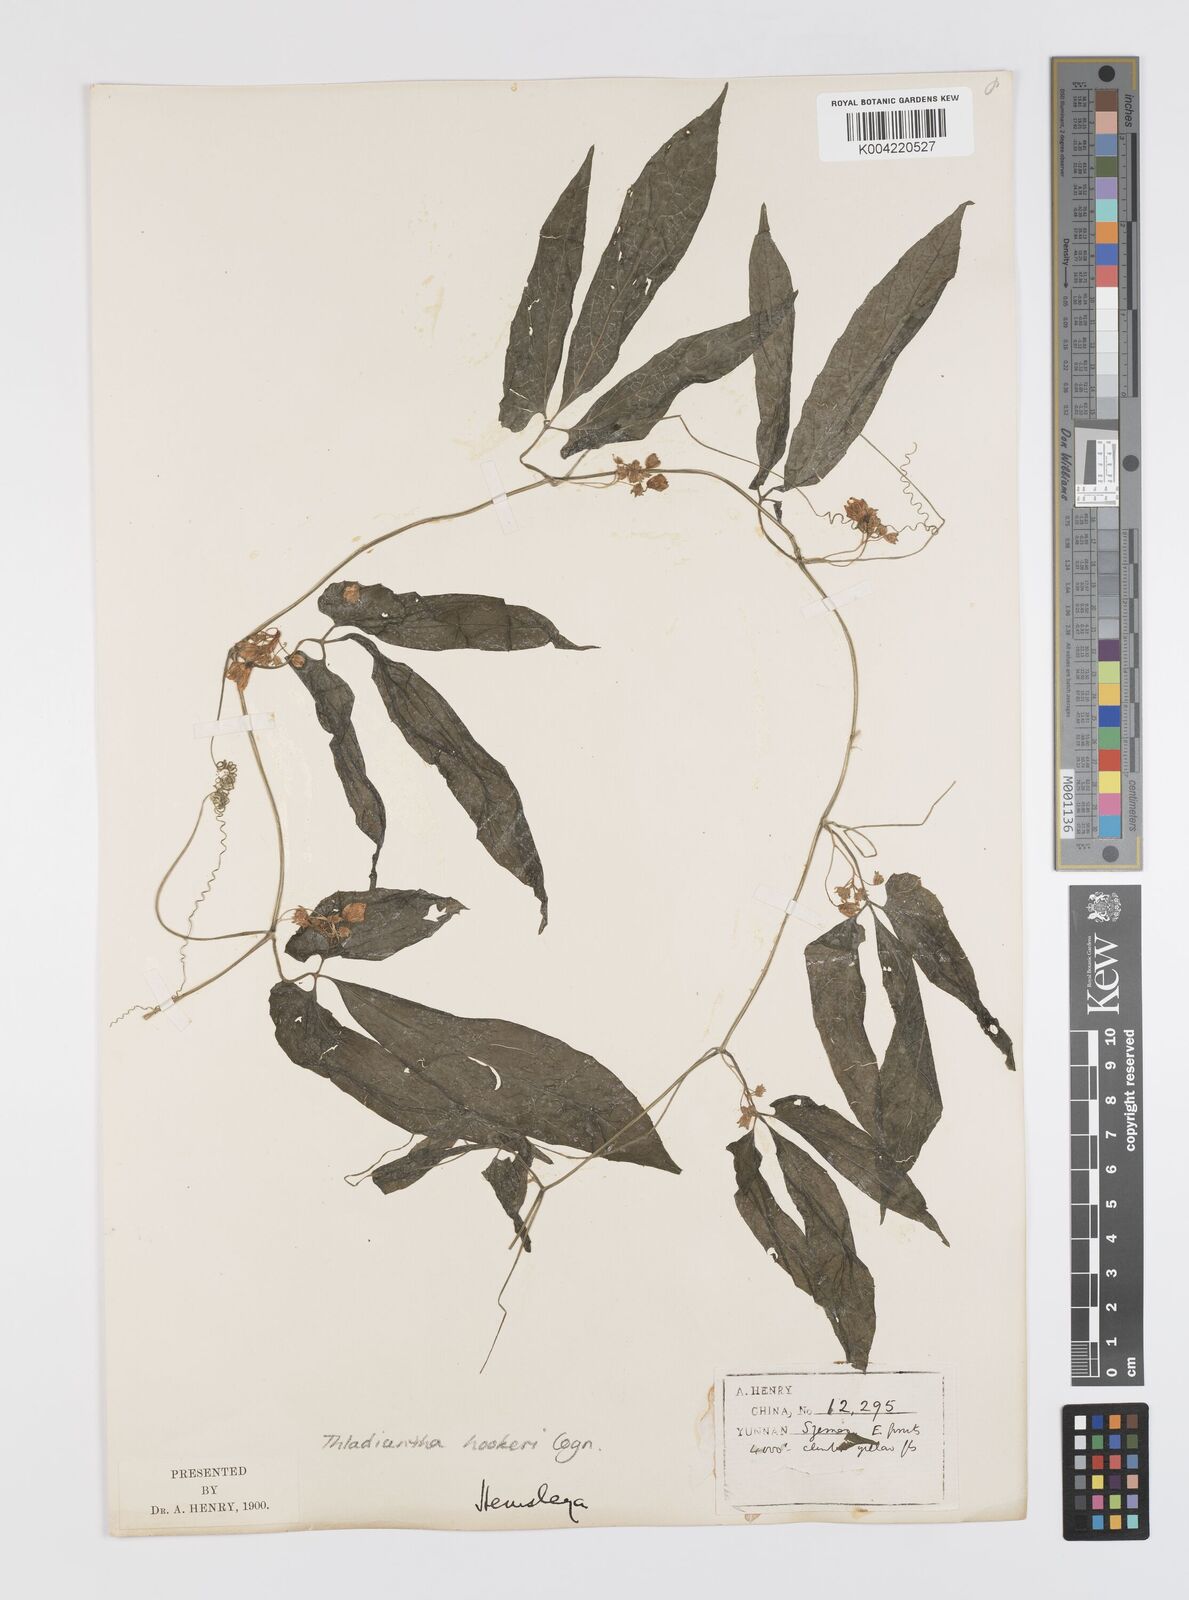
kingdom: Plantae
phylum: Tracheophyta
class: Magnoliopsida
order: Cucurbitales
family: Cucurbitaceae
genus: Thladiantha
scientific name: Thladiantha hookeri
